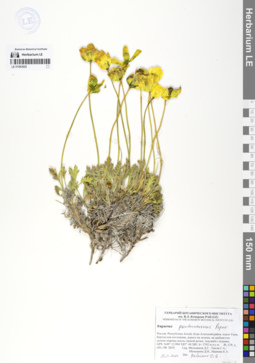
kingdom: Plantae
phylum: Tracheophyta
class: Magnoliopsida
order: Ranunculales
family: Papaveraceae
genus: Papaver
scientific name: Papaver canescens
